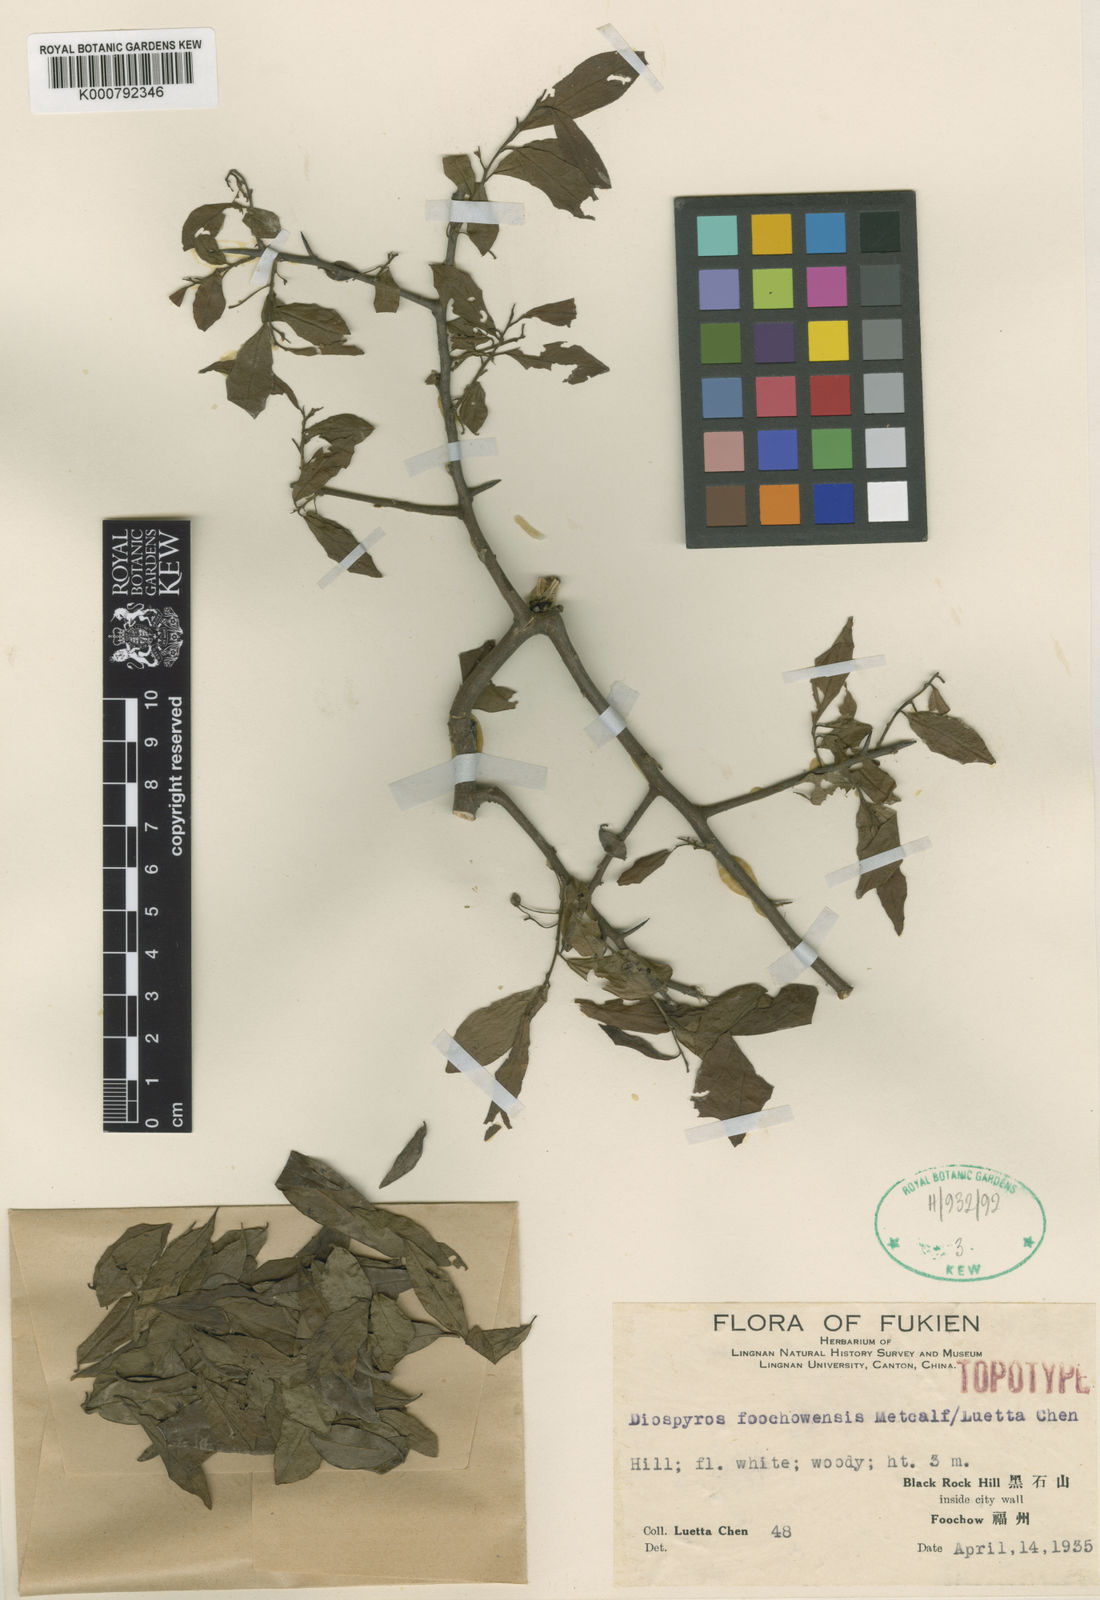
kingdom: Plantae
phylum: Tracheophyta
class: Magnoliopsida
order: Ericales
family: Ebenaceae
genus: Diospyros
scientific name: Diospyros cathayensis
